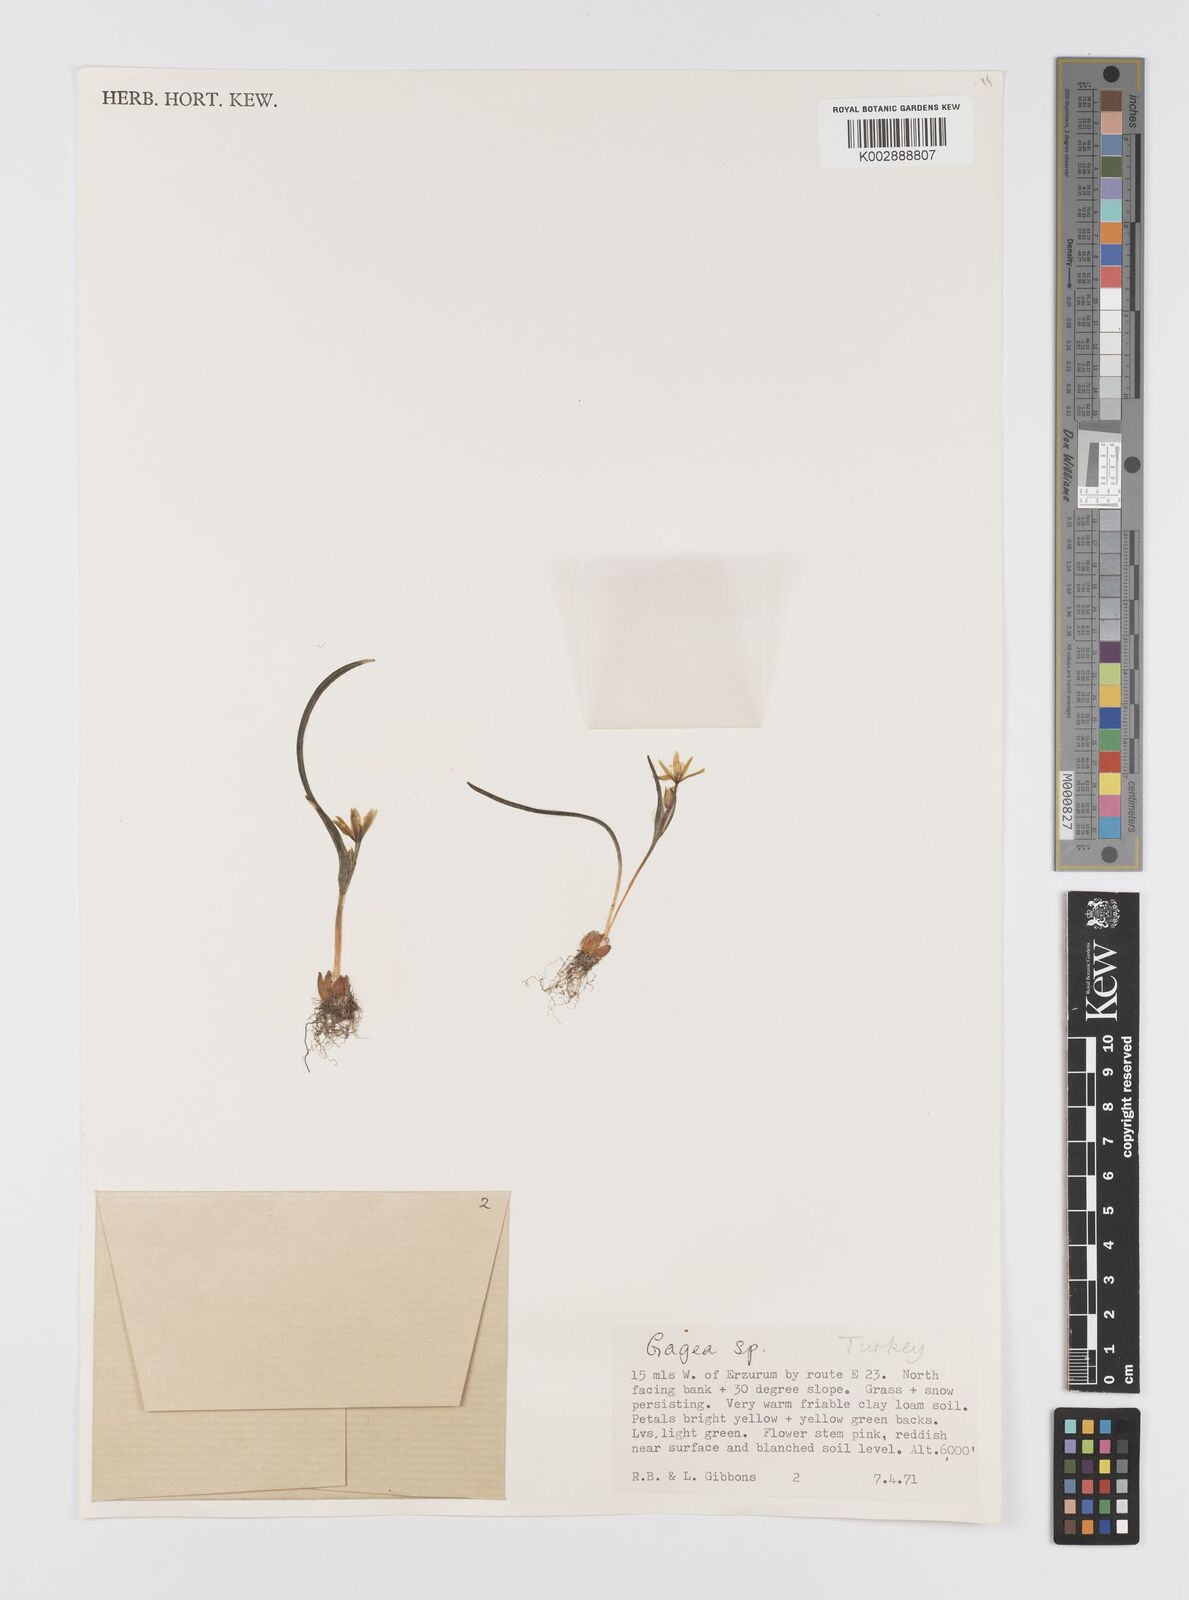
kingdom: Plantae
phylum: Tracheophyta
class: Liliopsida
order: Liliales
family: Liliaceae
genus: Gagea
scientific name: Gagea
